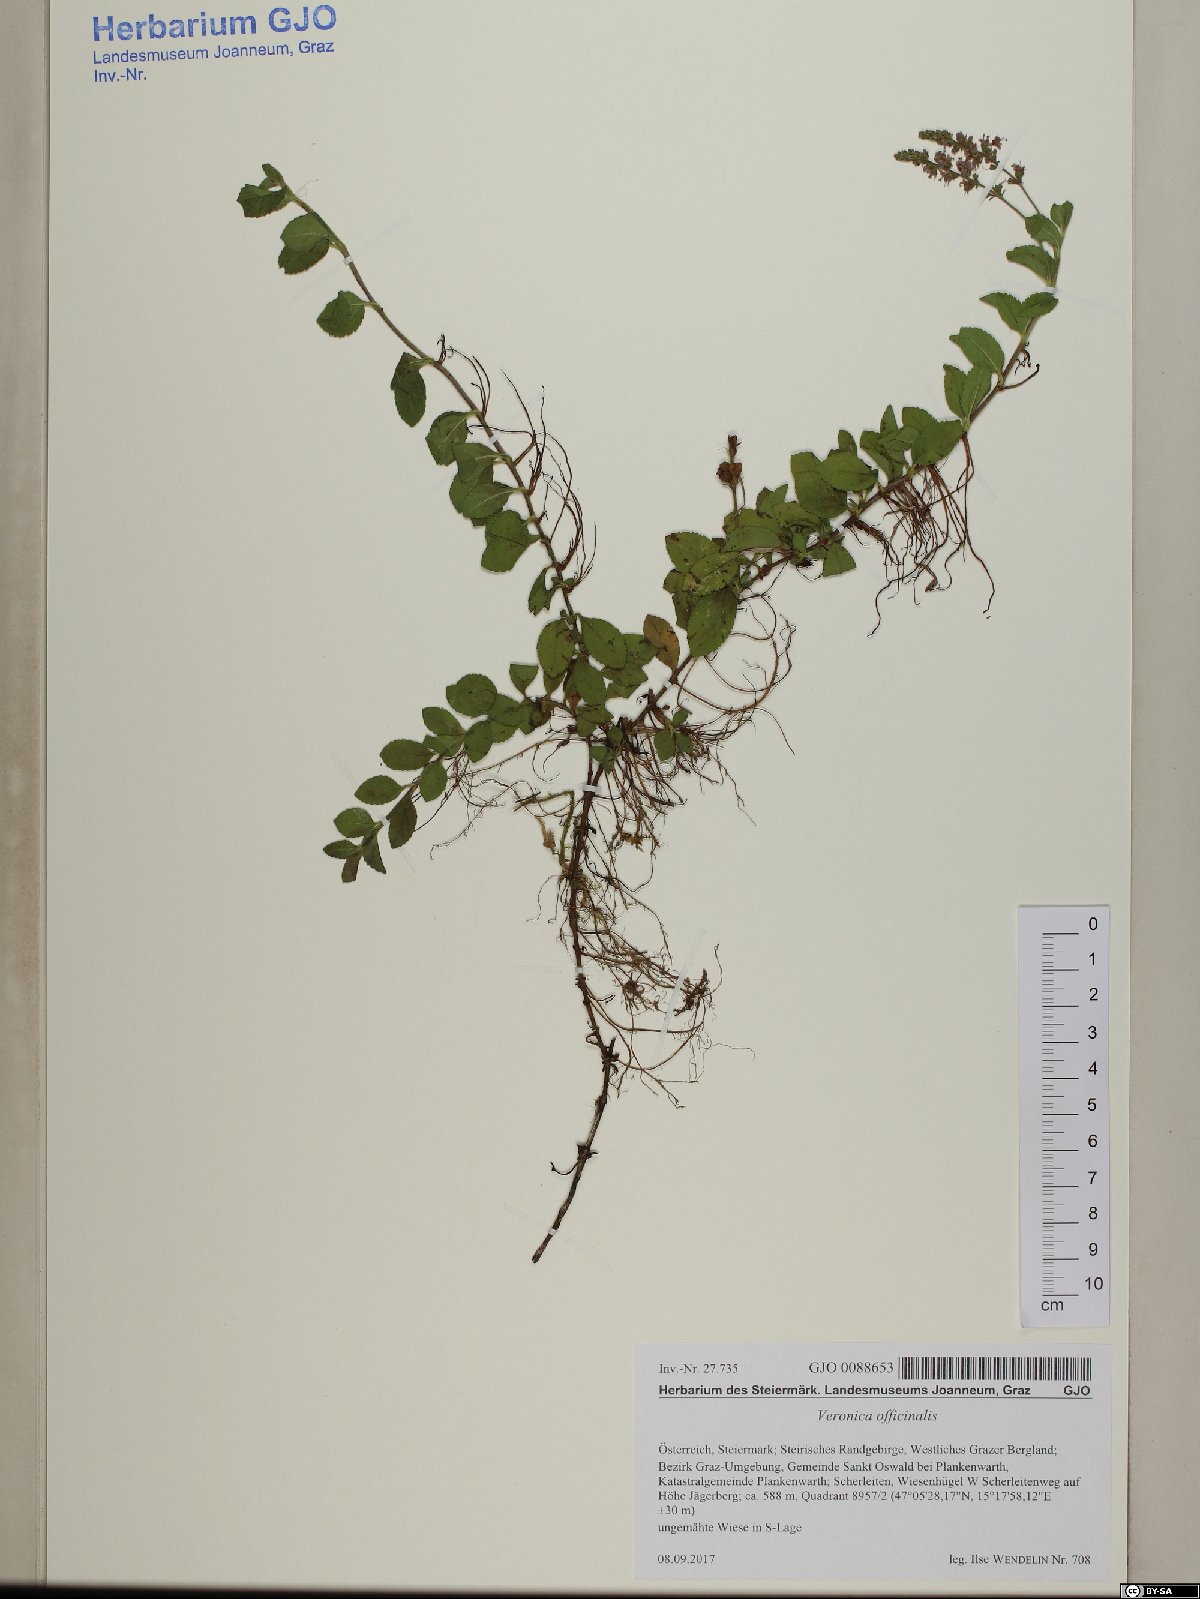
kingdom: Plantae
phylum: Tracheophyta
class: Magnoliopsida
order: Lamiales
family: Plantaginaceae
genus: Veronica
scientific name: Veronica officinalis
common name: Common speedwell
